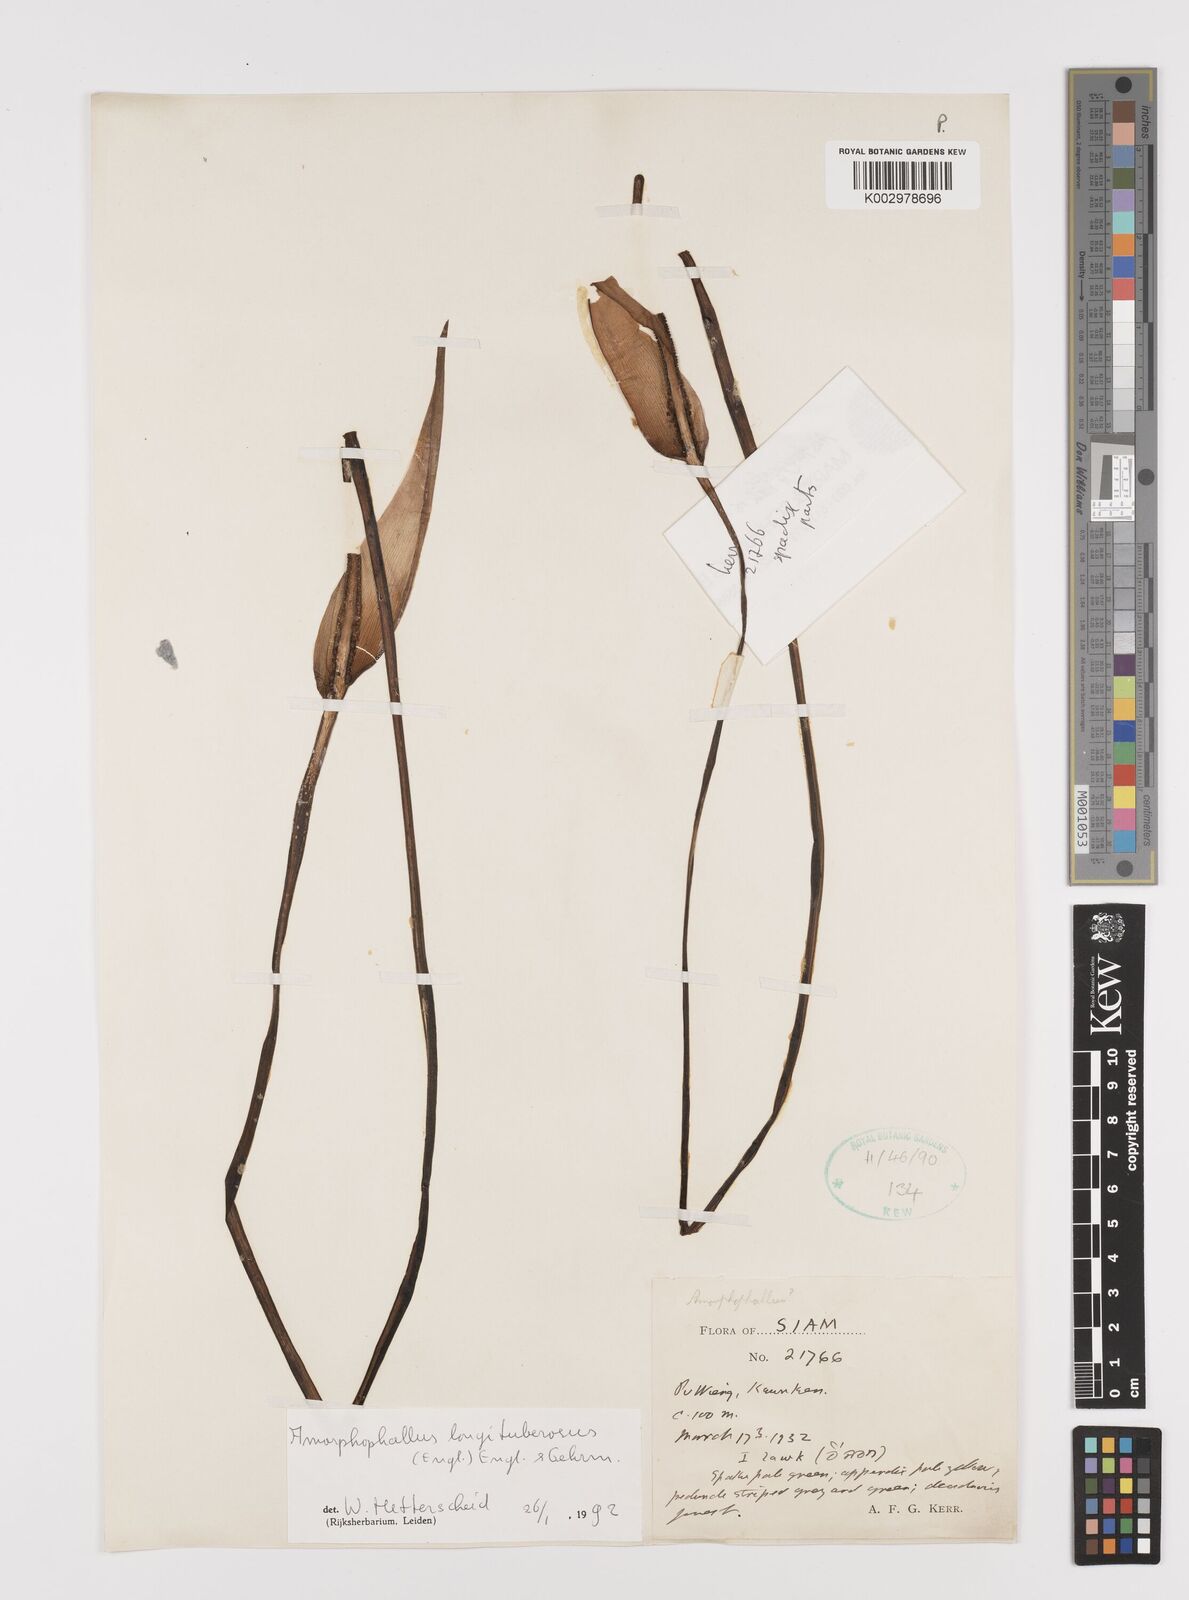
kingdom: Plantae
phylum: Tracheophyta
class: Liliopsida
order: Alismatales
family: Araceae
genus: Amorphophallus
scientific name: Amorphophallus longituberosus
